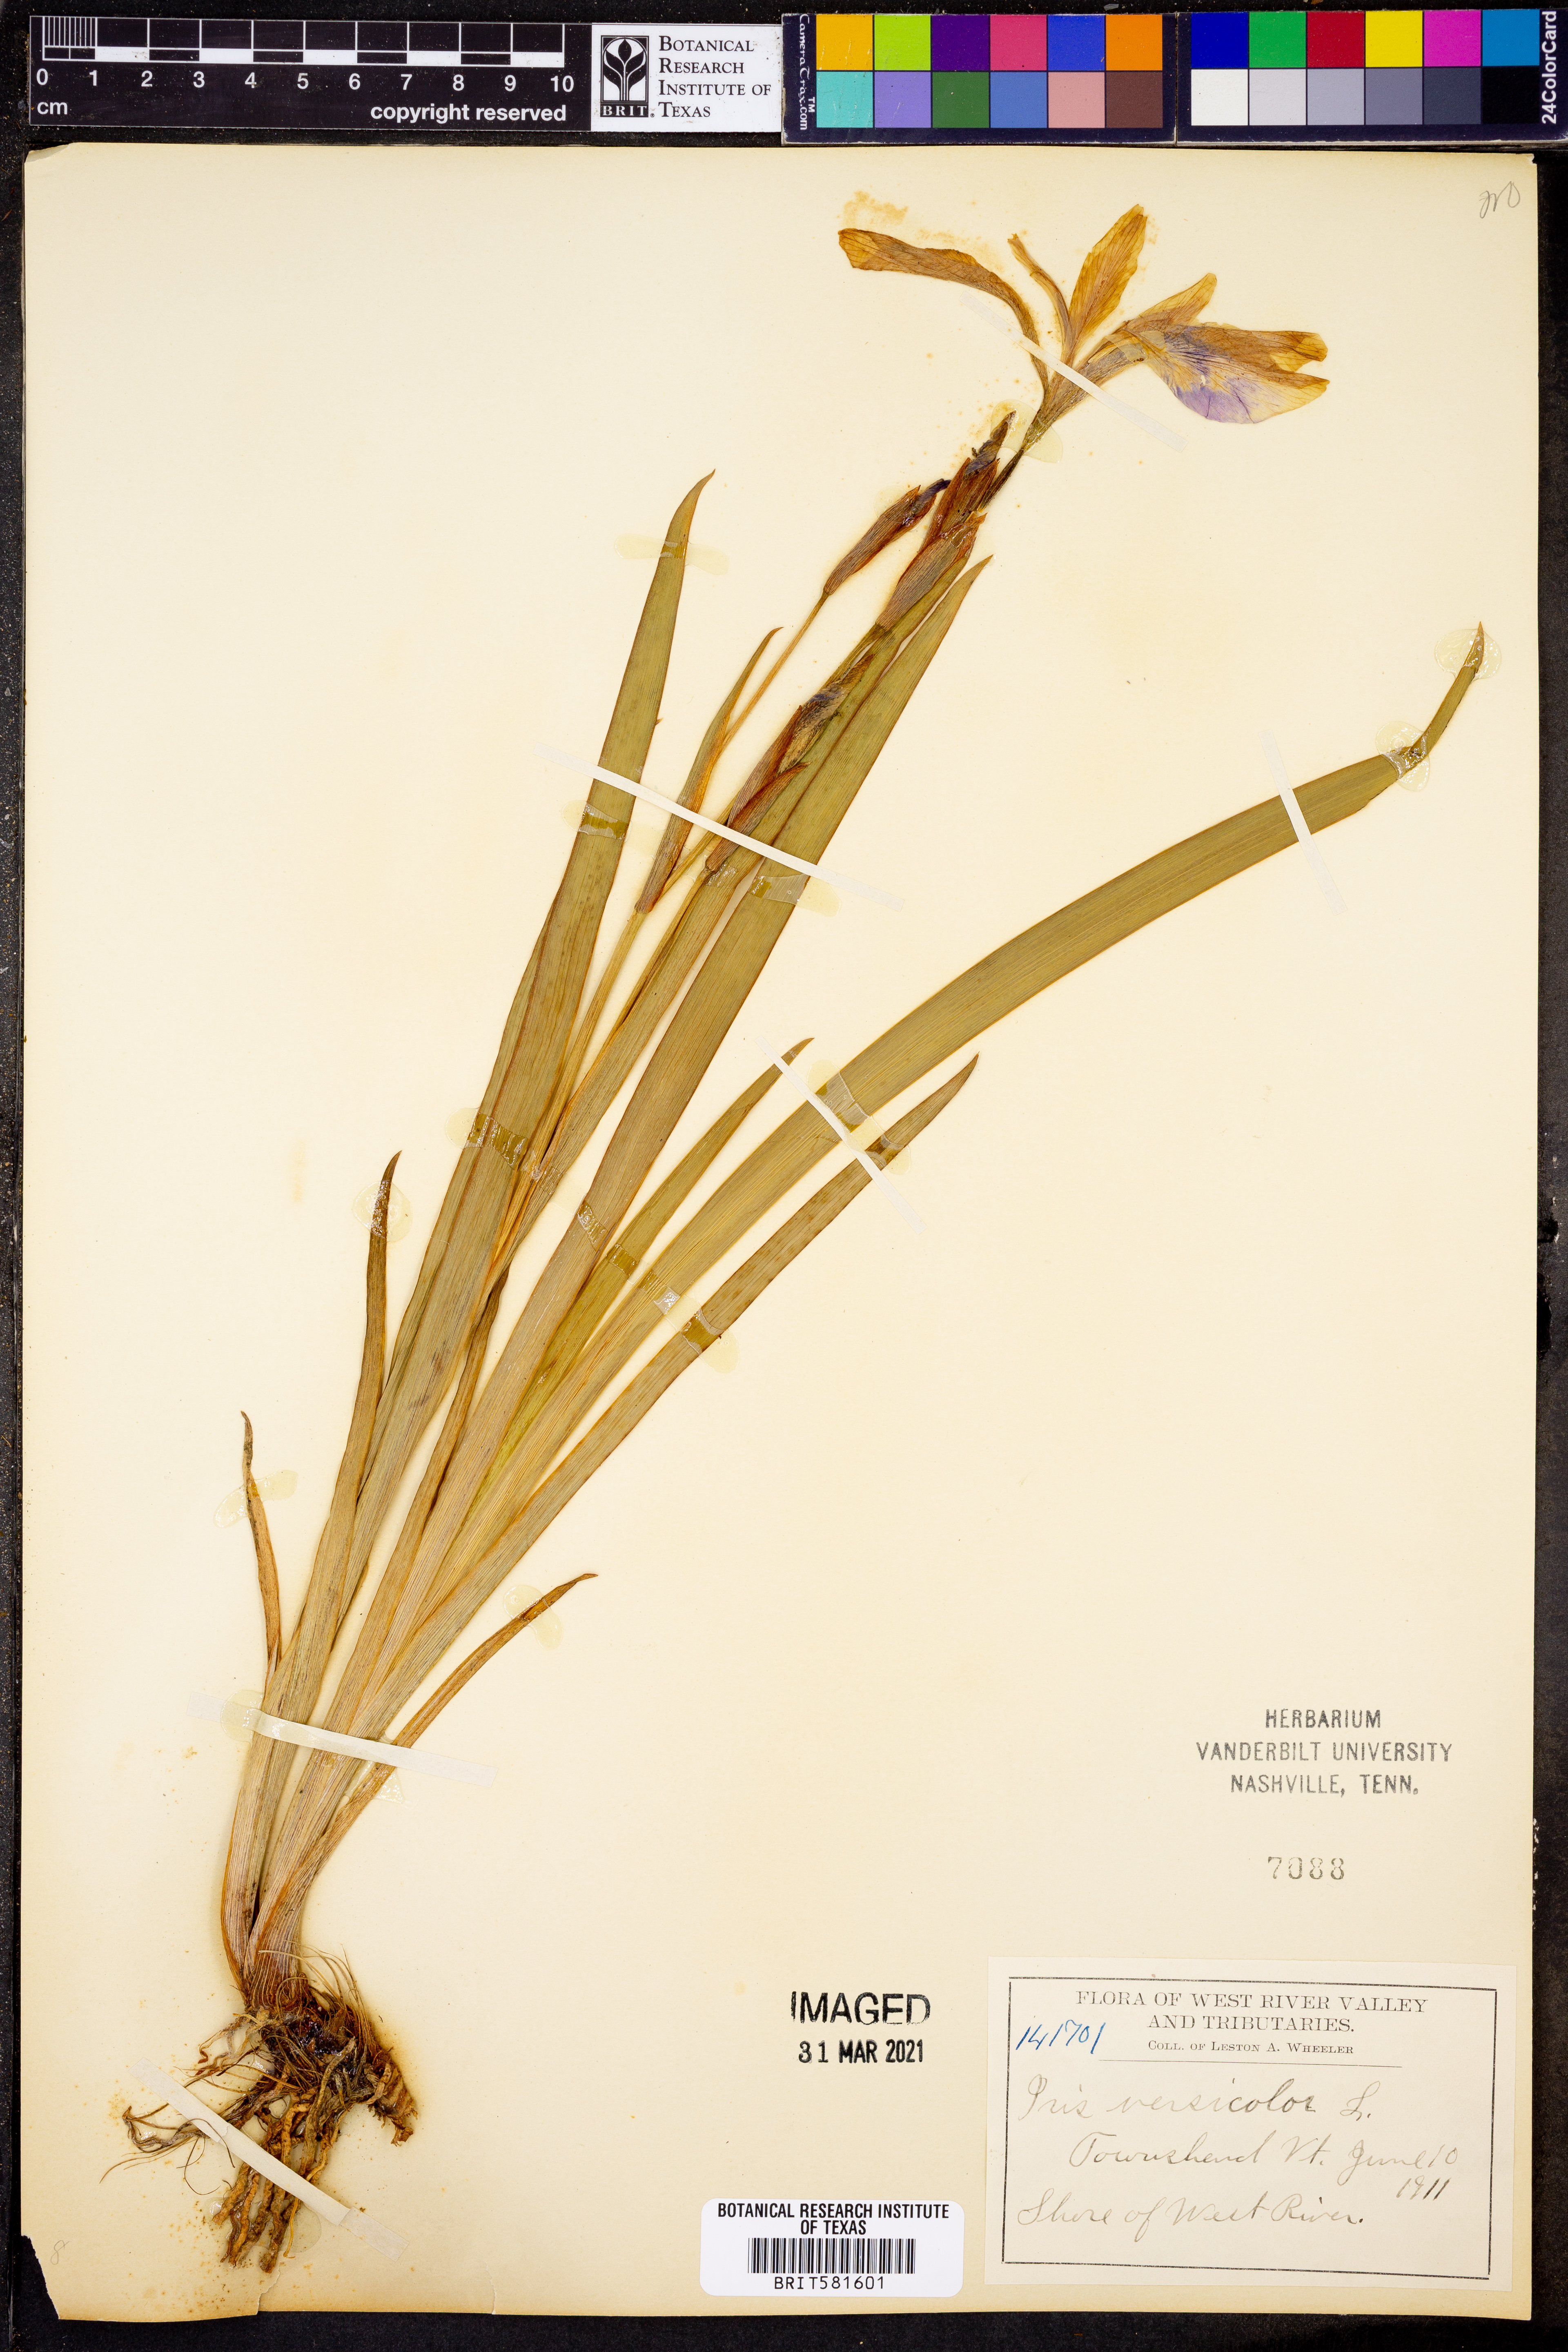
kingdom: Plantae
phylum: Tracheophyta
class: Liliopsida
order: Asparagales
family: Iridaceae
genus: Iris
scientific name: Iris versicolor
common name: Purple iris
